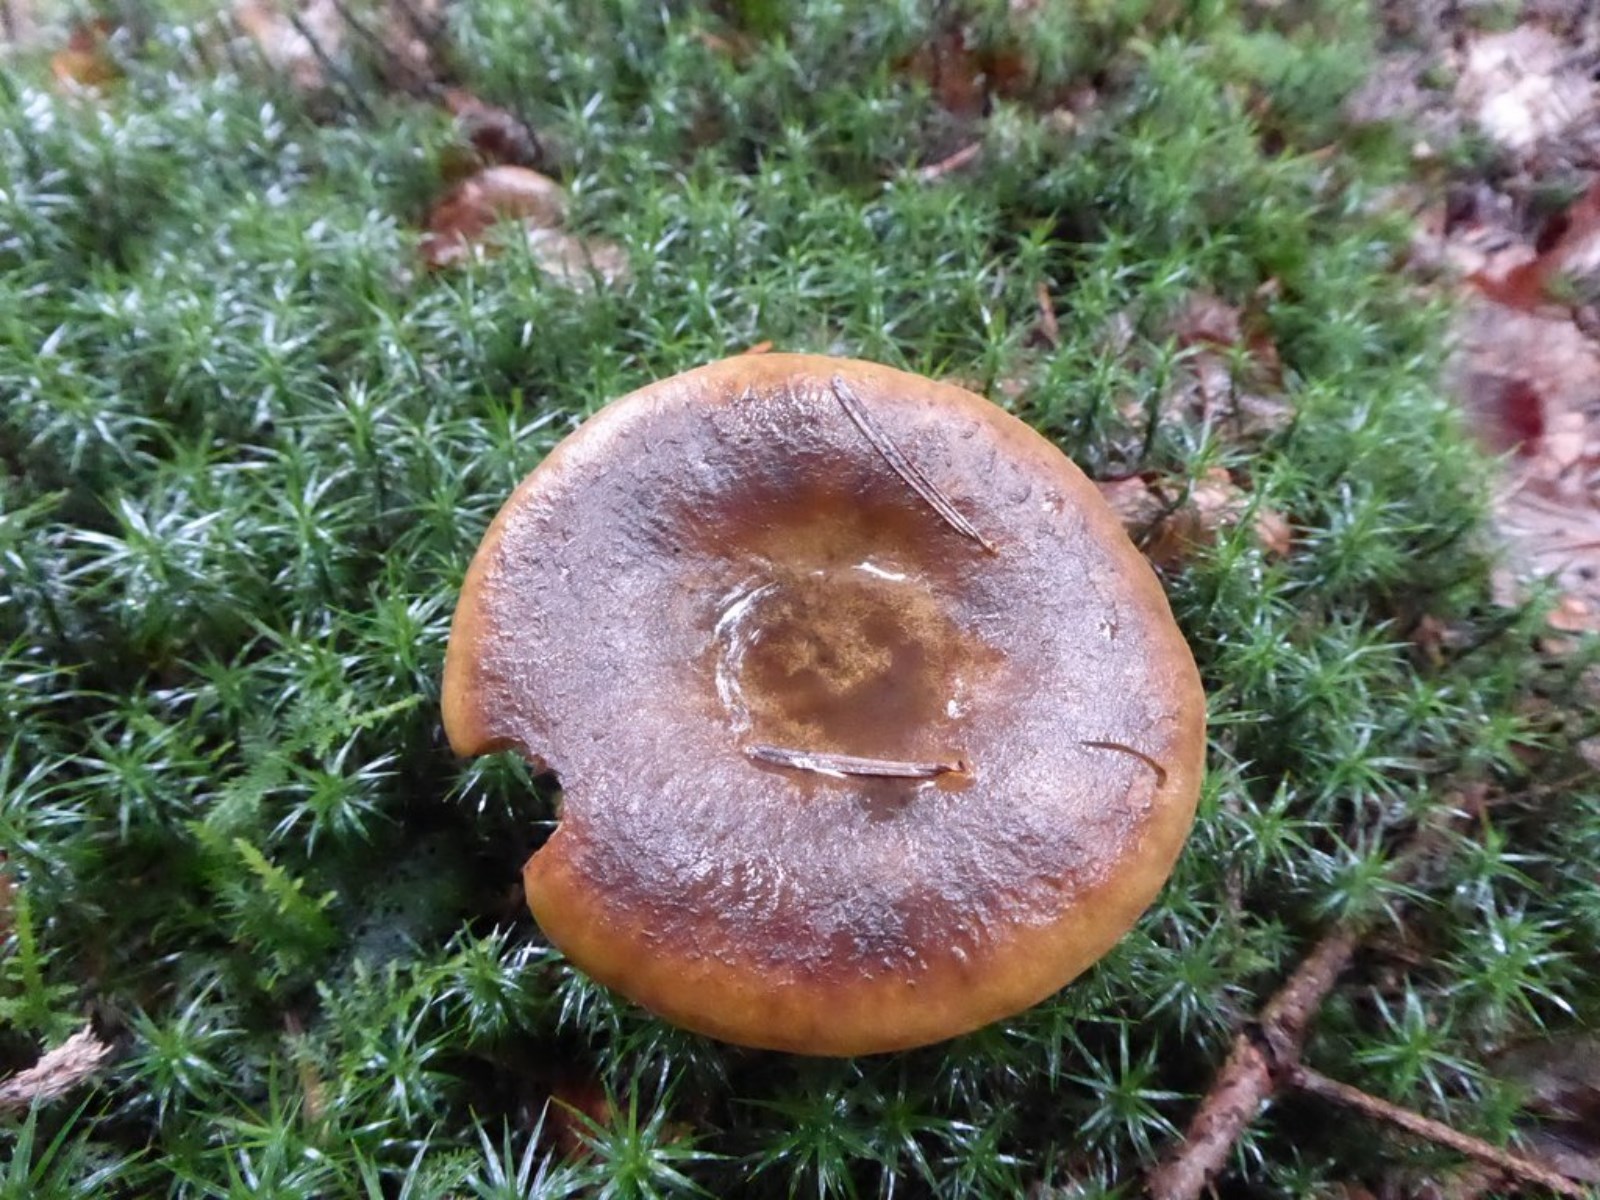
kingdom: Fungi
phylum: Basidiomycota
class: Agaricomycetes
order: Russulales
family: Russulaceae
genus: Lactarius
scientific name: Lactarius necator
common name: manddraber-mælkehat
